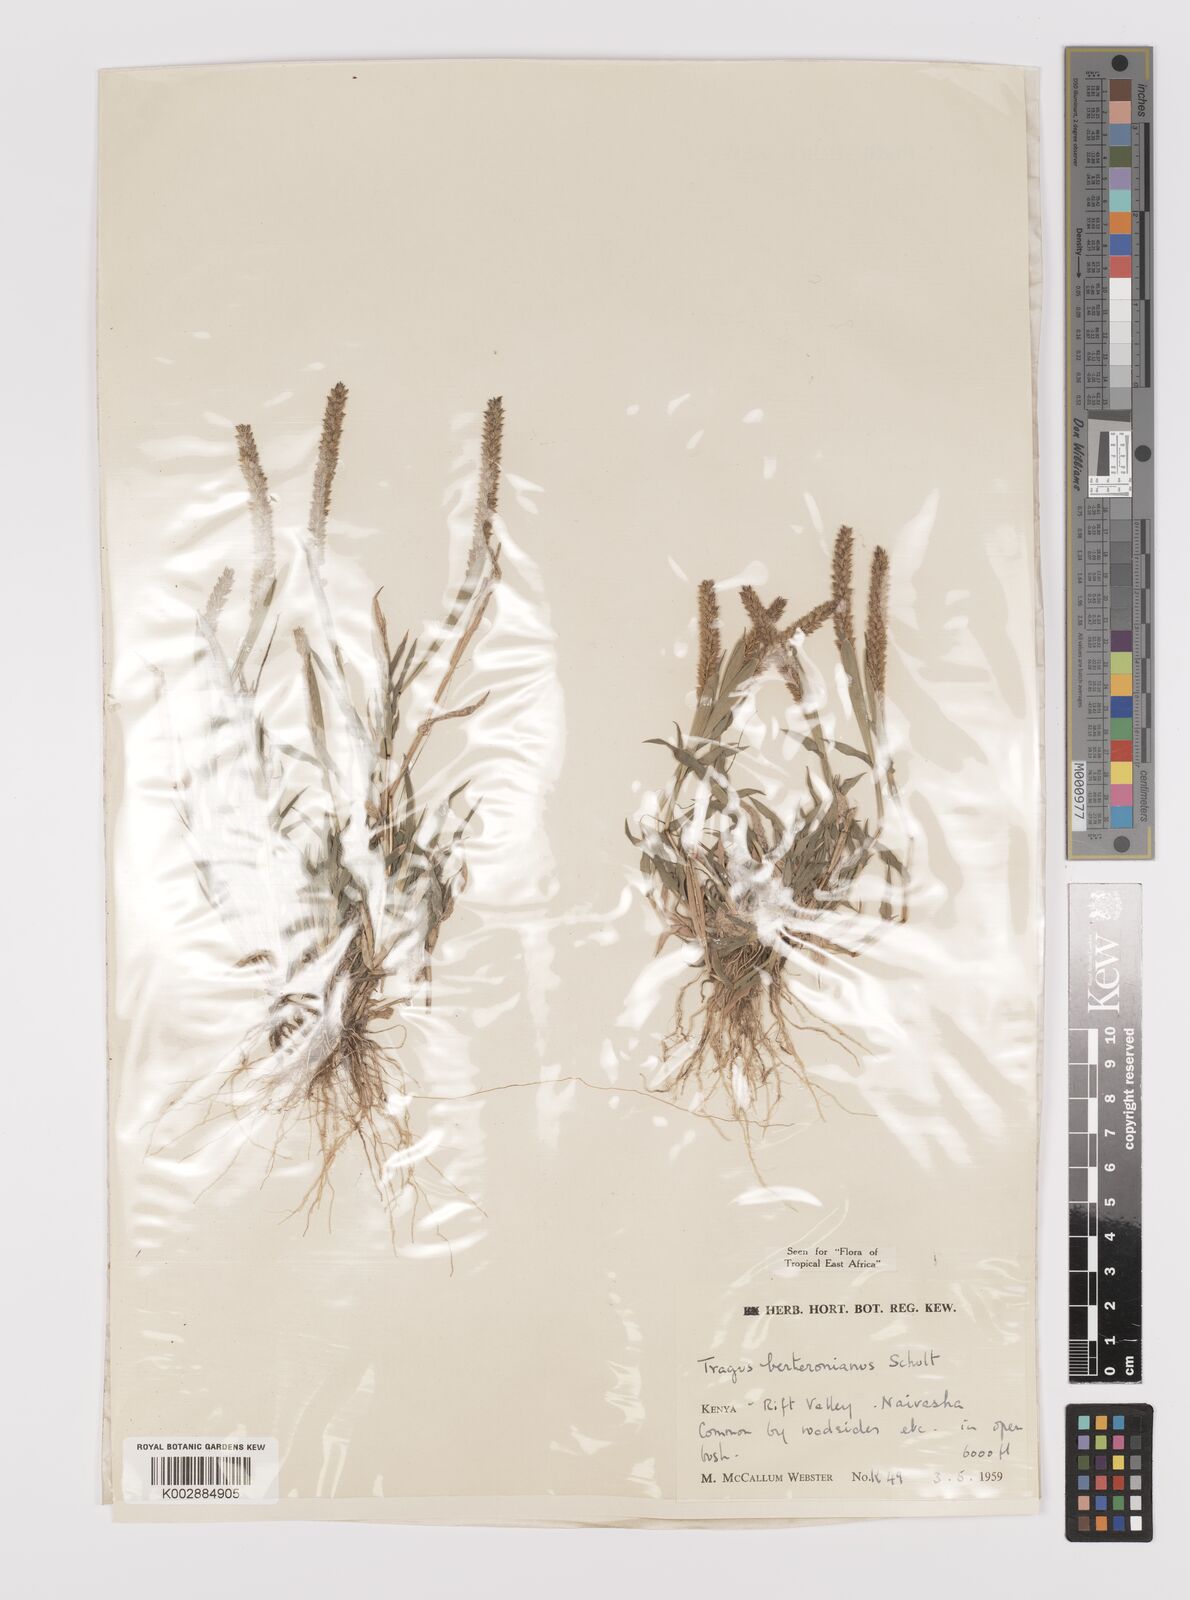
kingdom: Plantae
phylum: Tracheophyta
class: Liliopsida
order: Poales
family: Poaceae
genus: Tragus
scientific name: Tragus berteronianus
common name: African bur-grass
